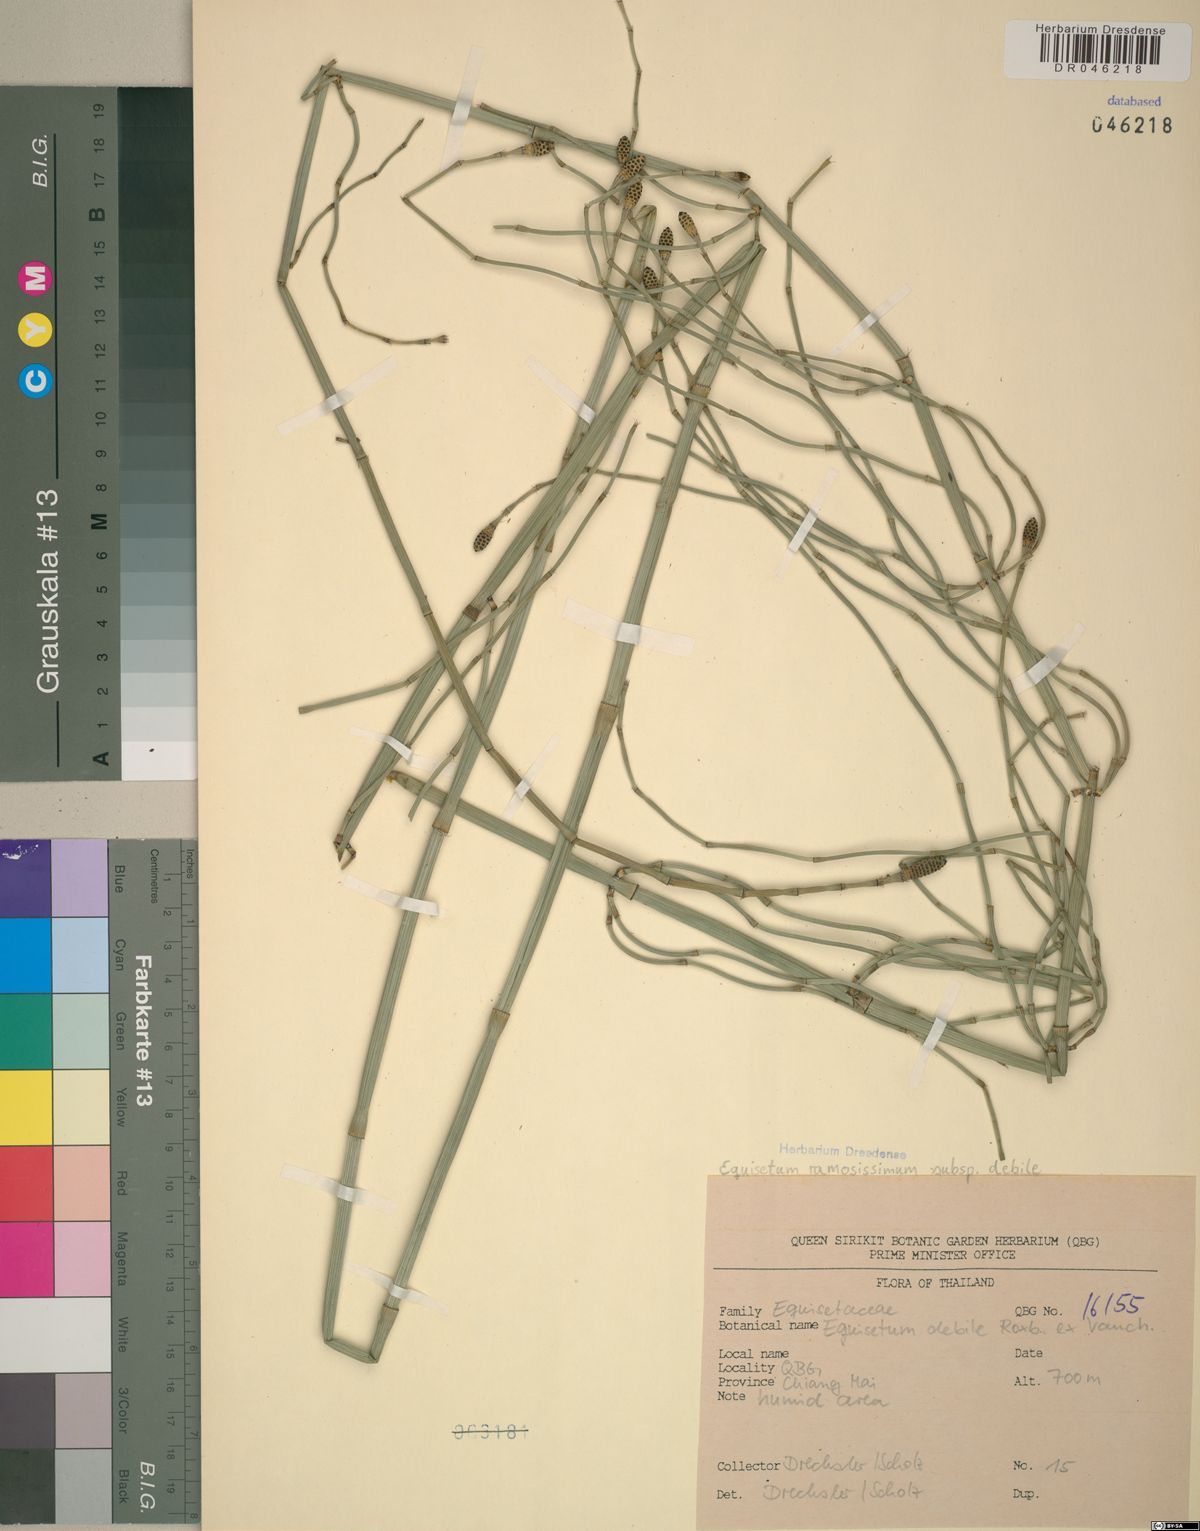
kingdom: Plantae
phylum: Tracheophyta
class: Polypodiopsida
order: Equisetales
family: Equisetaceae
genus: Equisetum
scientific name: Equisetum ramosissimum
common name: Branched horsetail
